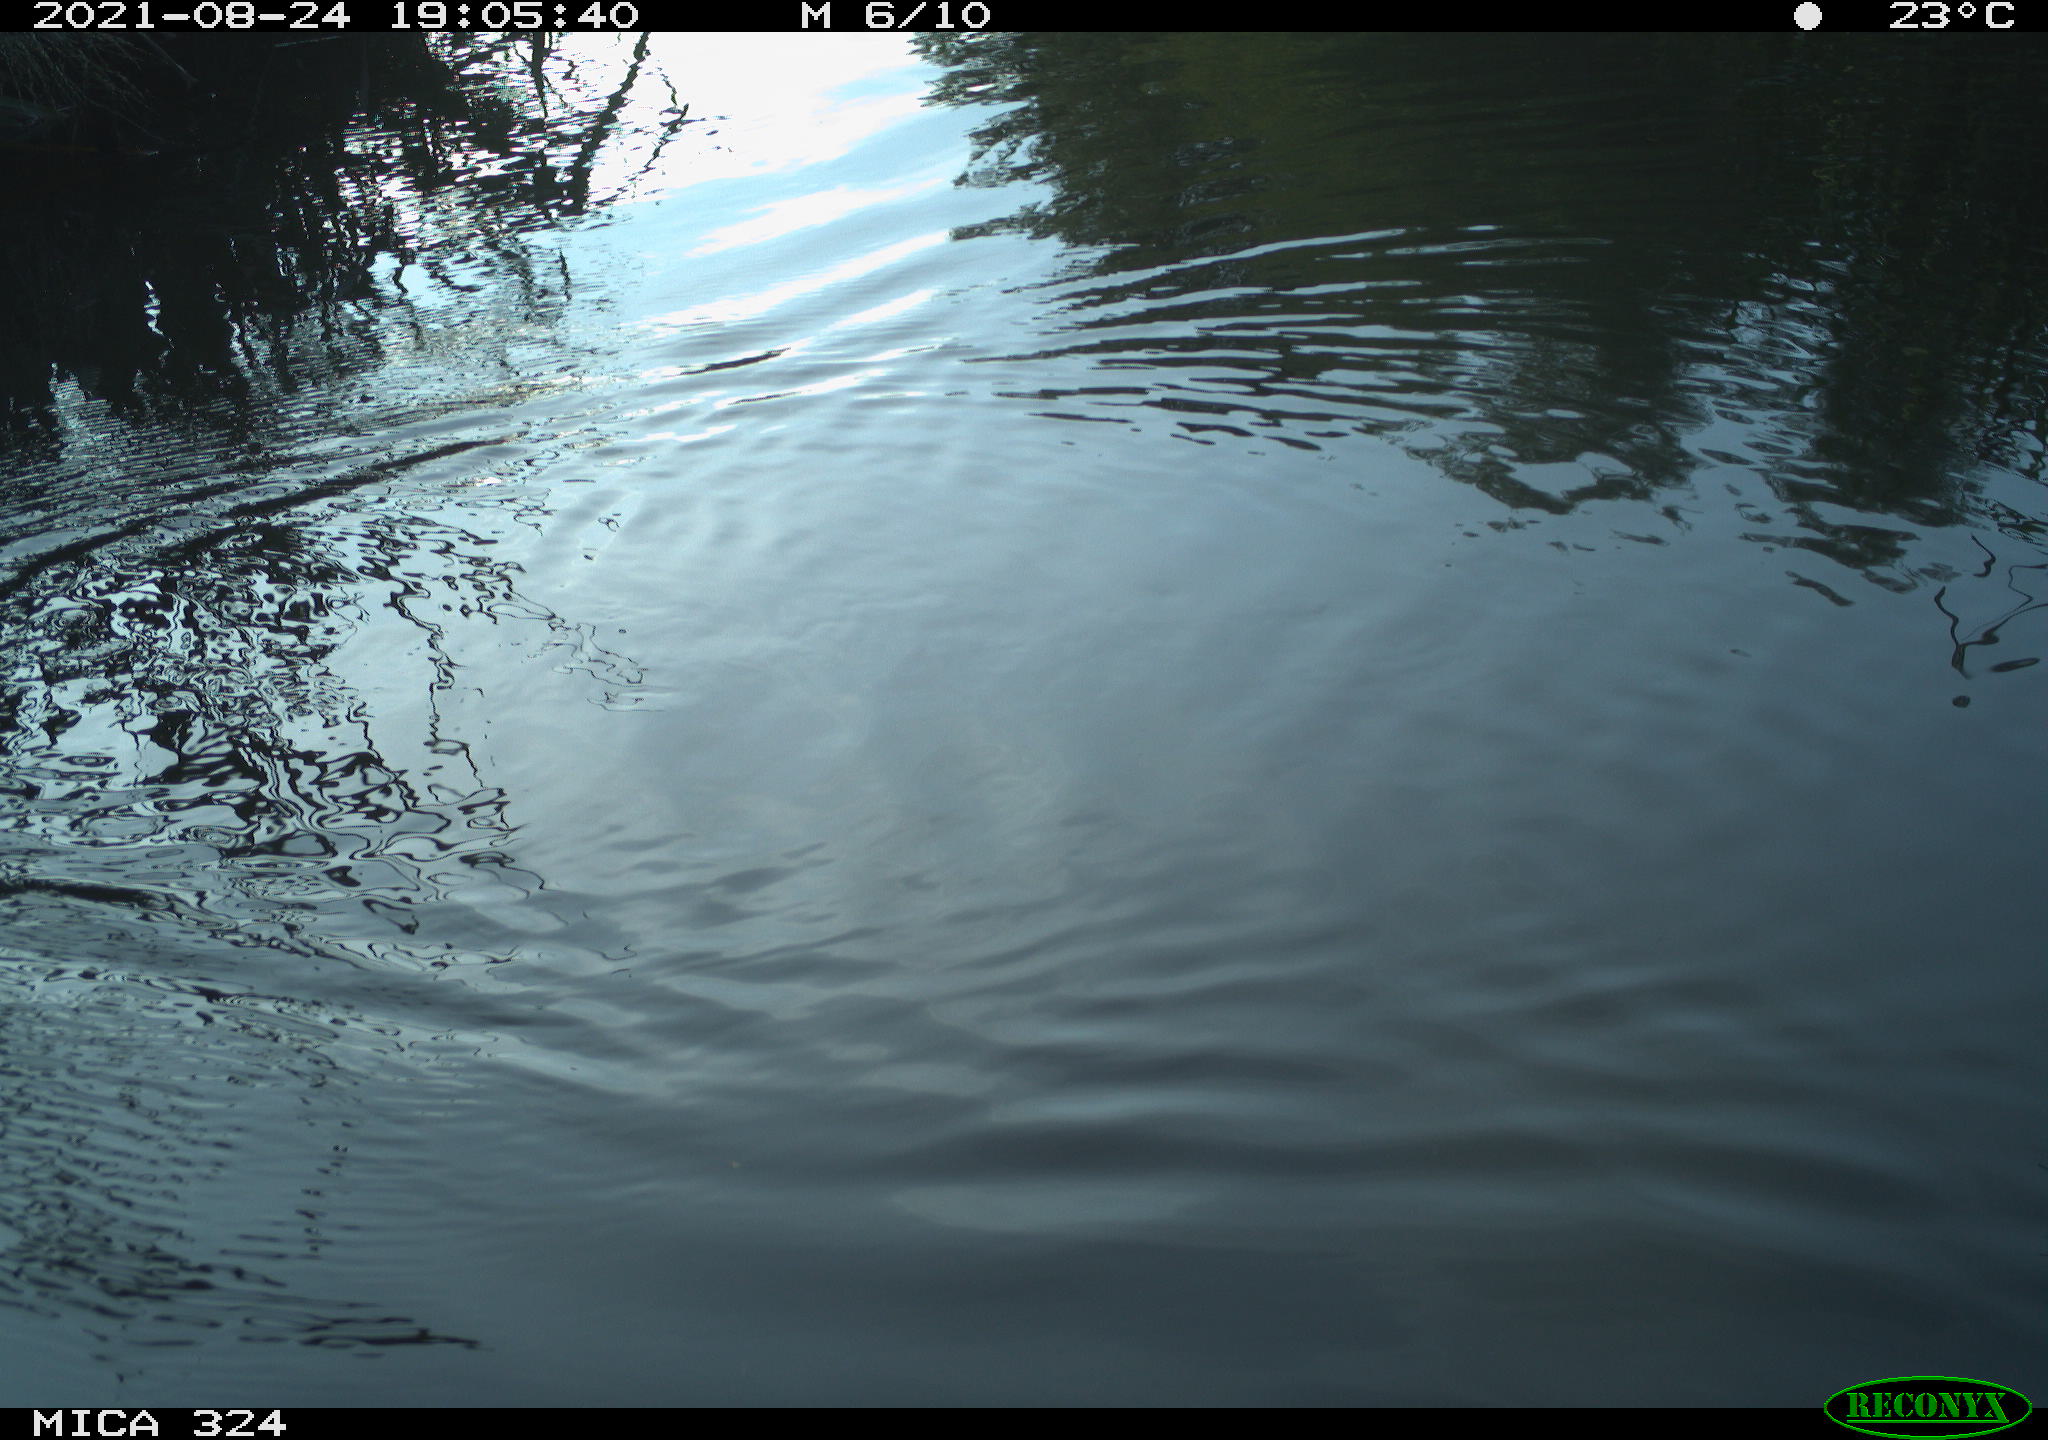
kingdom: Animalia
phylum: Chordata
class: Aves
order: Gruiformes
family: Rallidae
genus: Gallinula
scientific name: Gallinula chloropus
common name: Common moorhen
